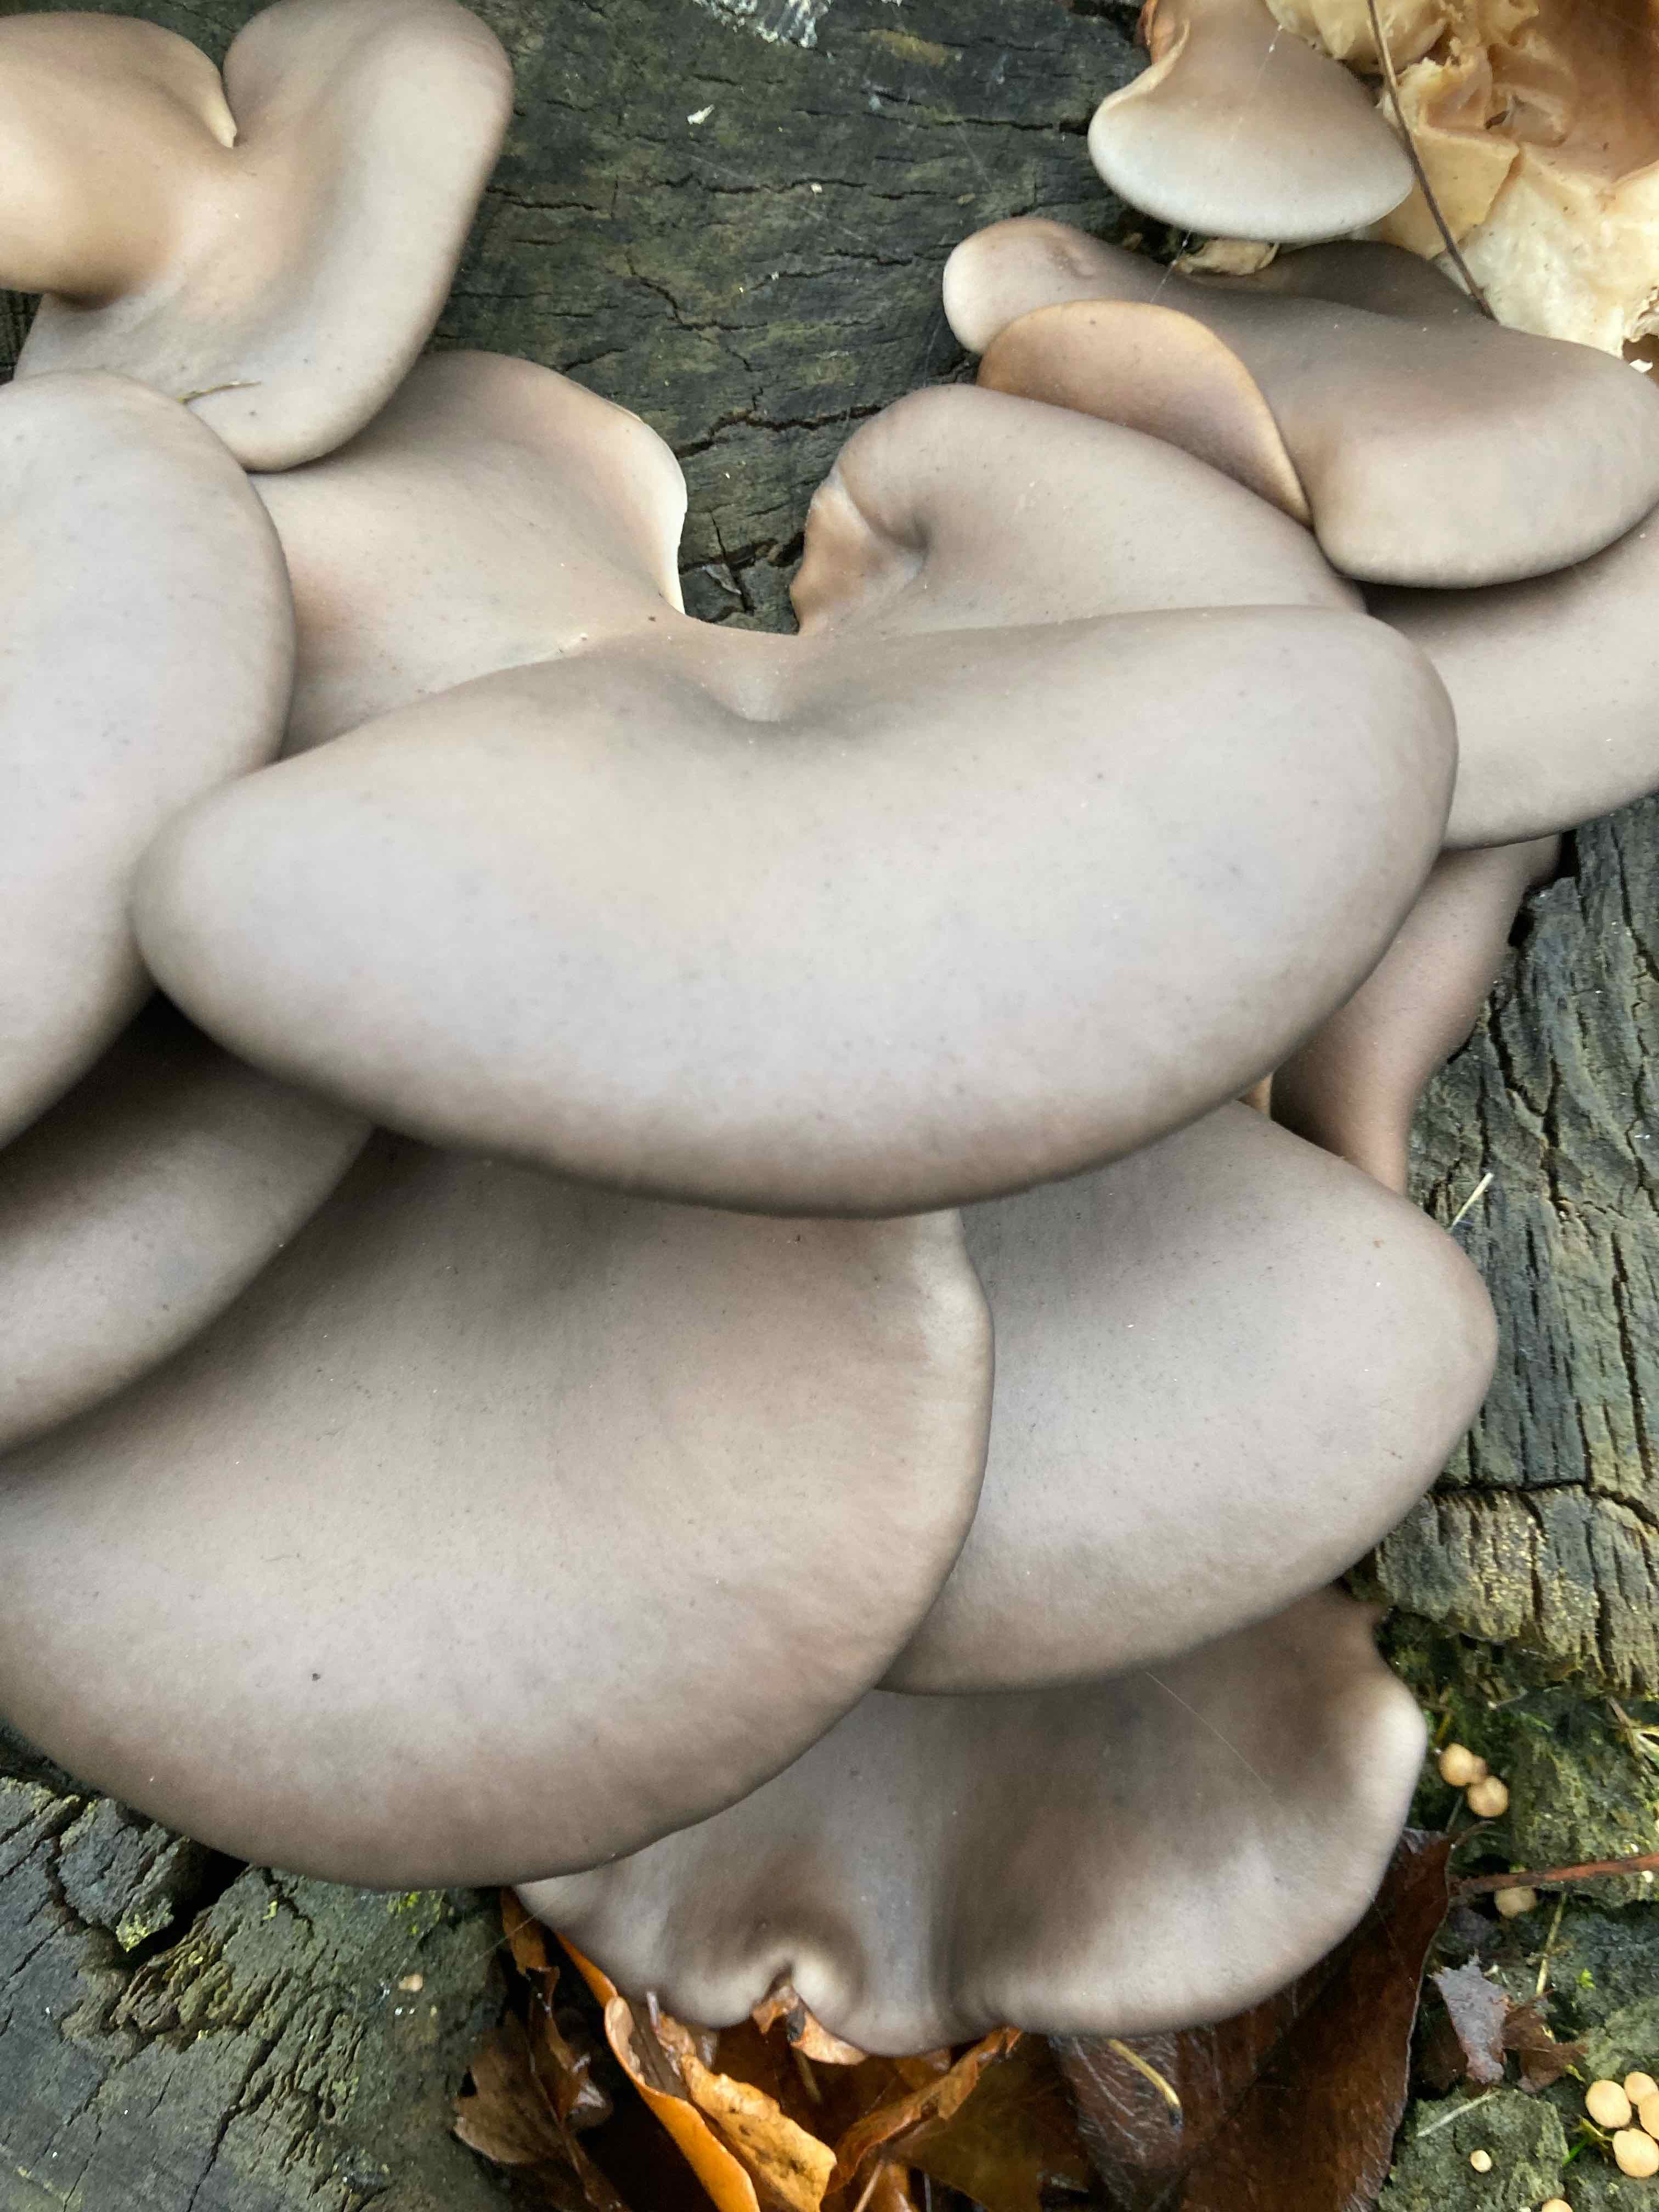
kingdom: Fungi
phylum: Basidiomycota
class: Agaricomycetes
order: Agaricales
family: Pleurotaceae
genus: Pleurotus
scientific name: Pleurotus ostreatus
